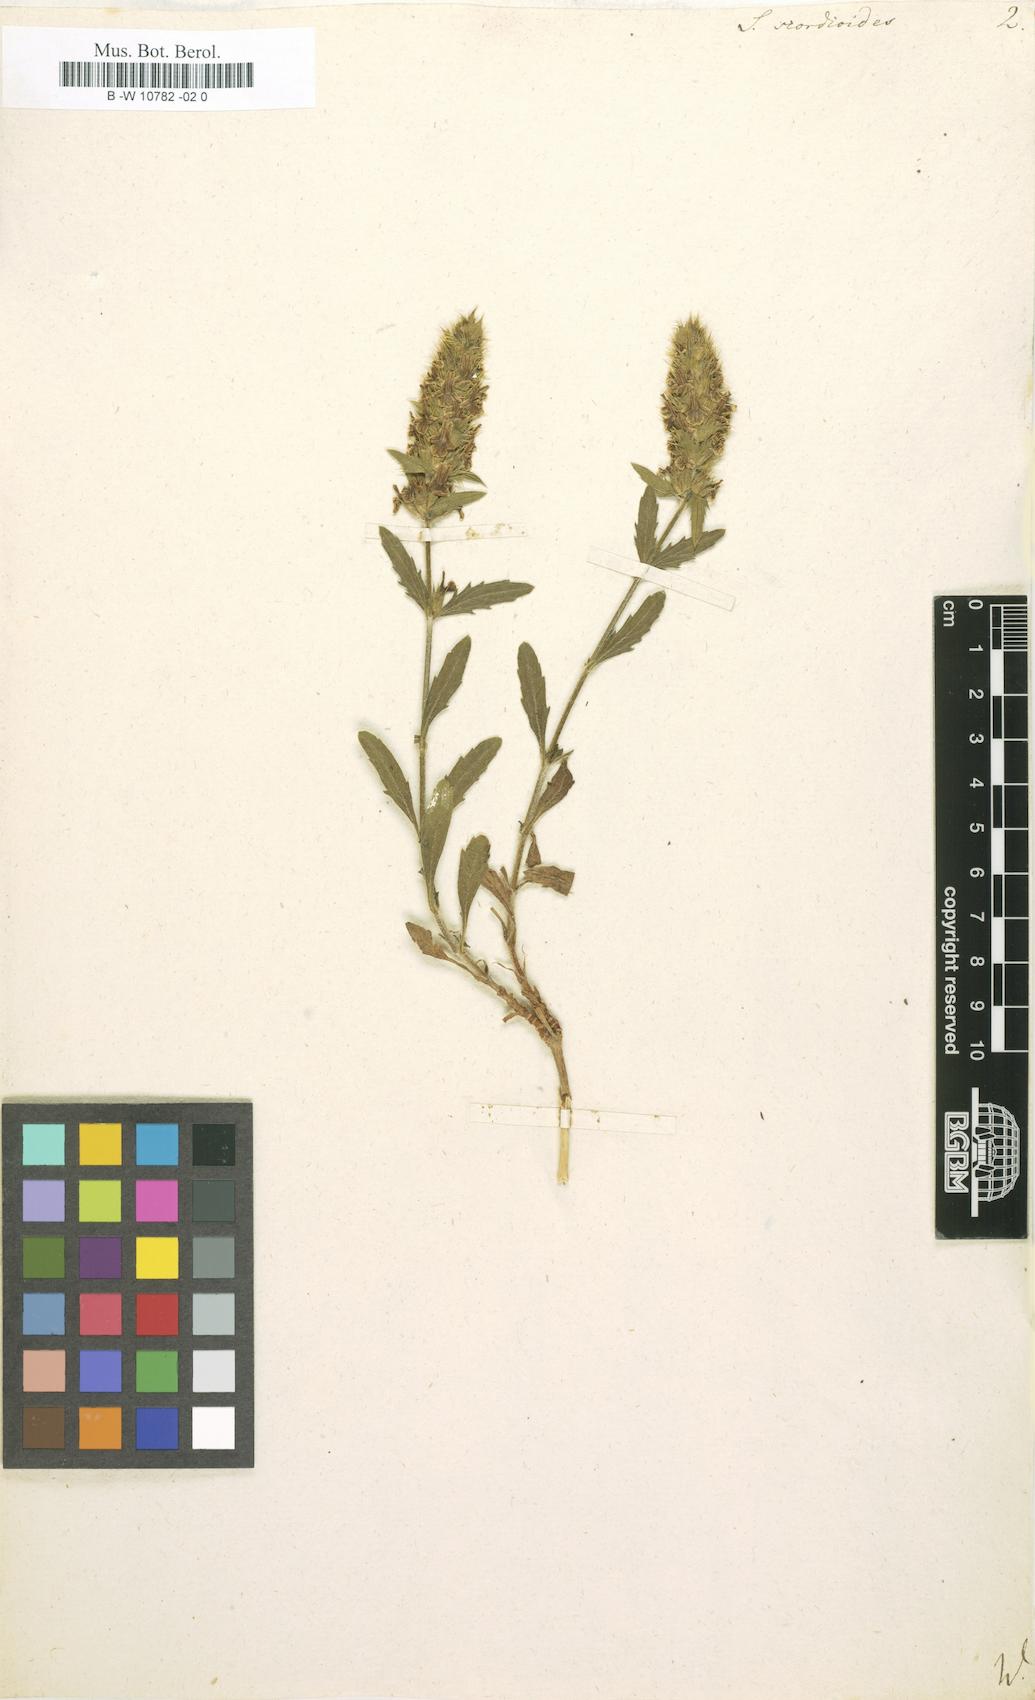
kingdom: Plantae
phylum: Tracheophyta
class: Magnoliopsida
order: Lamiales
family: Lamiaceae
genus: Sideritis
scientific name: Sideritis hyssopifolia
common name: Mountain tea
